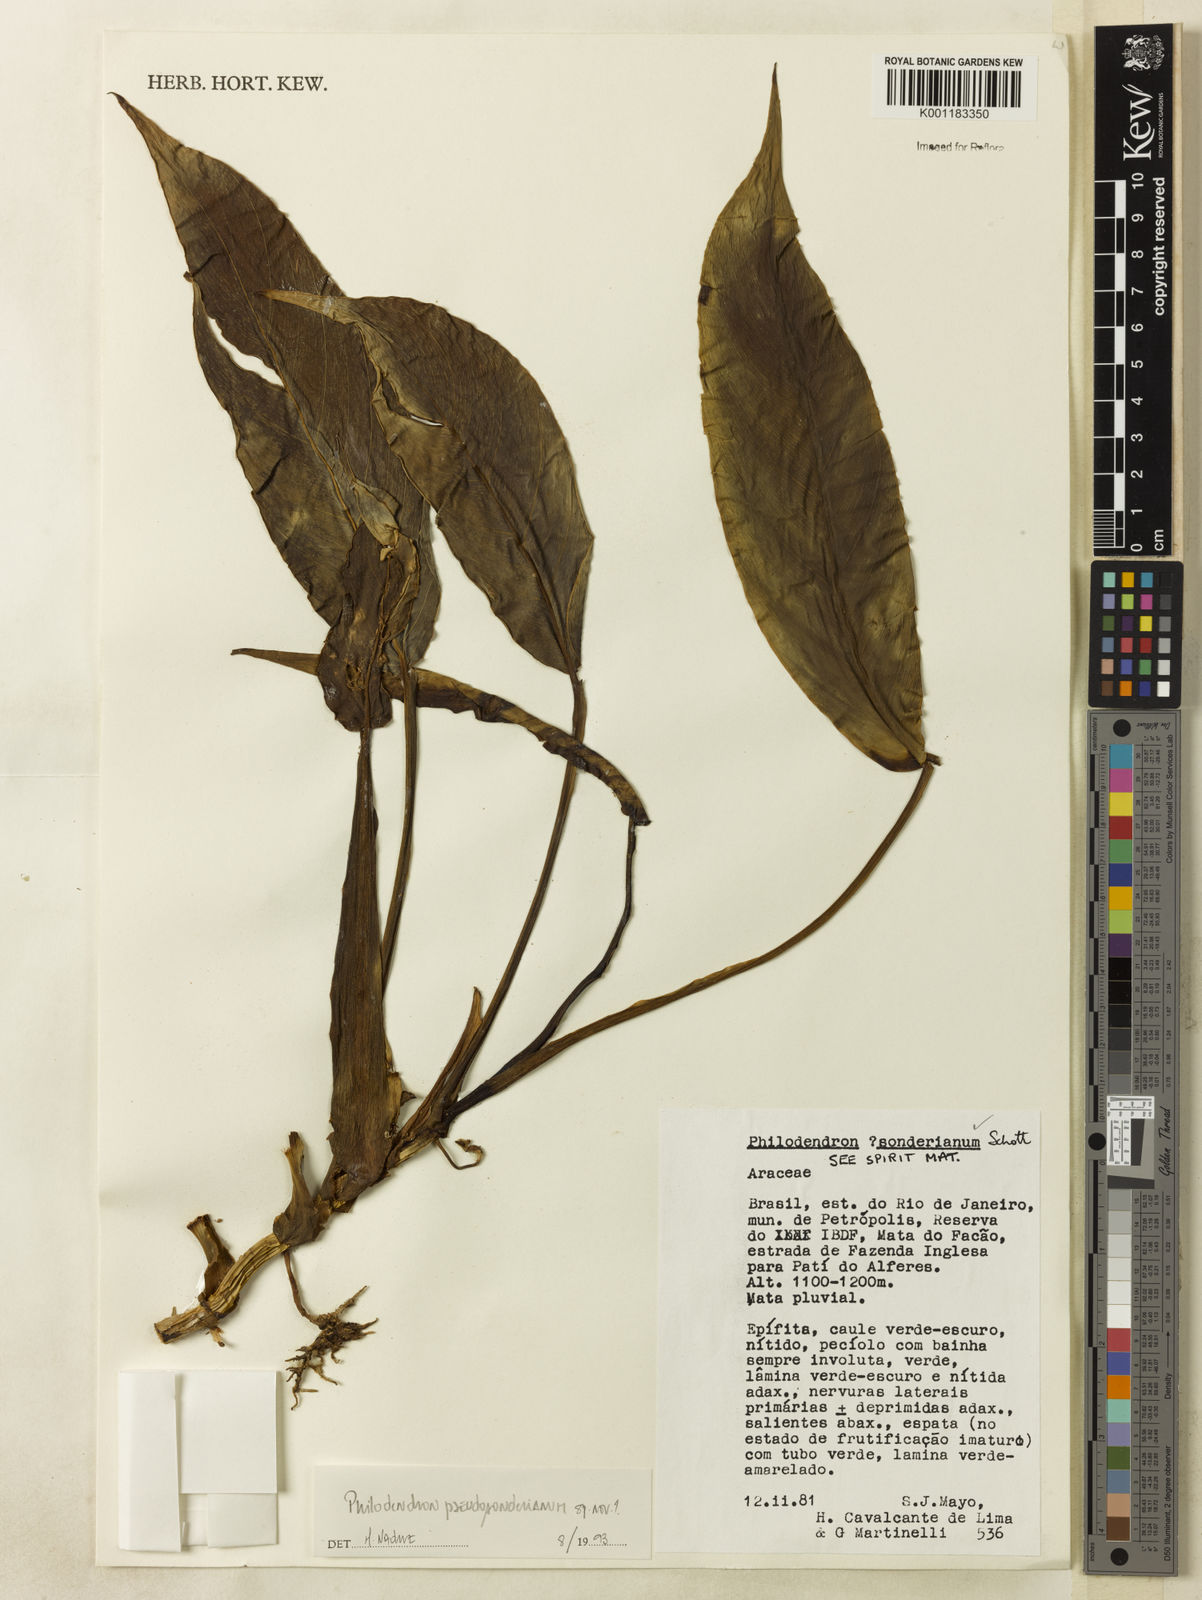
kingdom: Plantae
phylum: Tracheophyta
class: Liliopsida
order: Alismatales
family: Araceae
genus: Philodendron
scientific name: Philodendron
